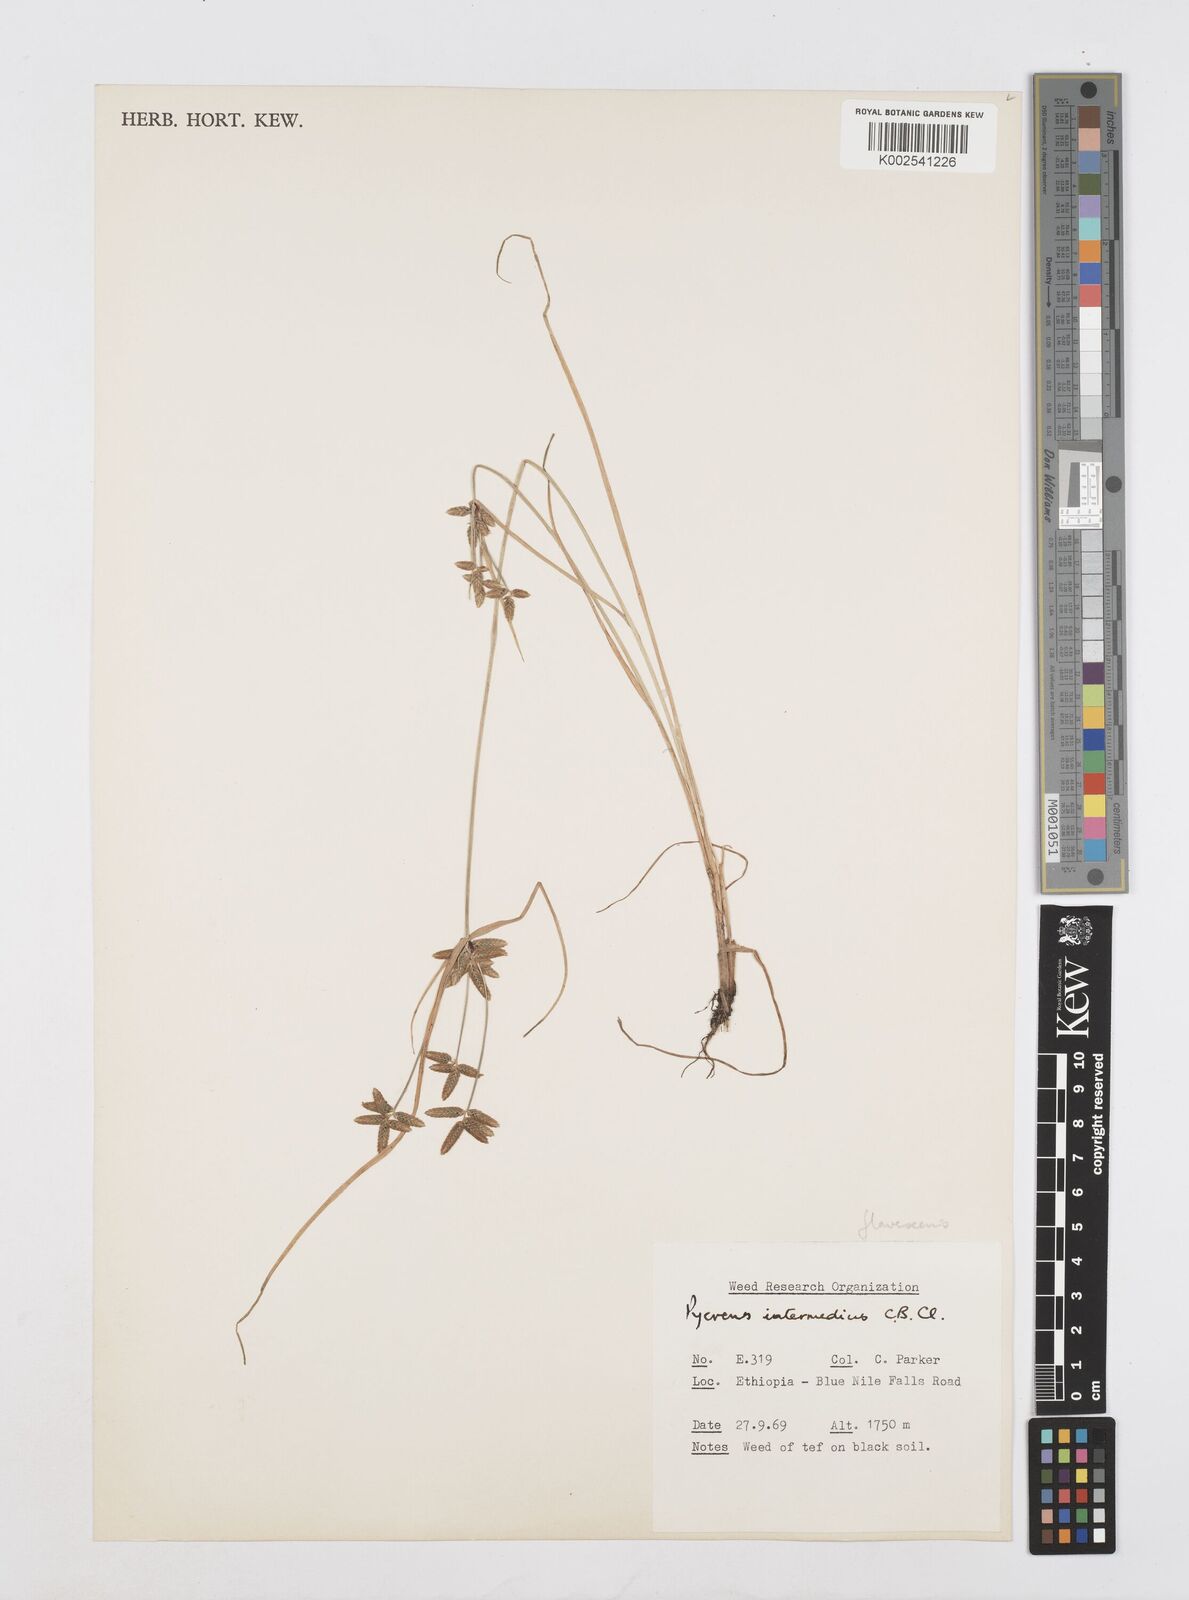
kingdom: Plantae
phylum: Tracheophyta
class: Liliopsida
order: Poales
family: Cyperaceae
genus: Cyperus
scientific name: Cyperus flavescens
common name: Yellow galingale
